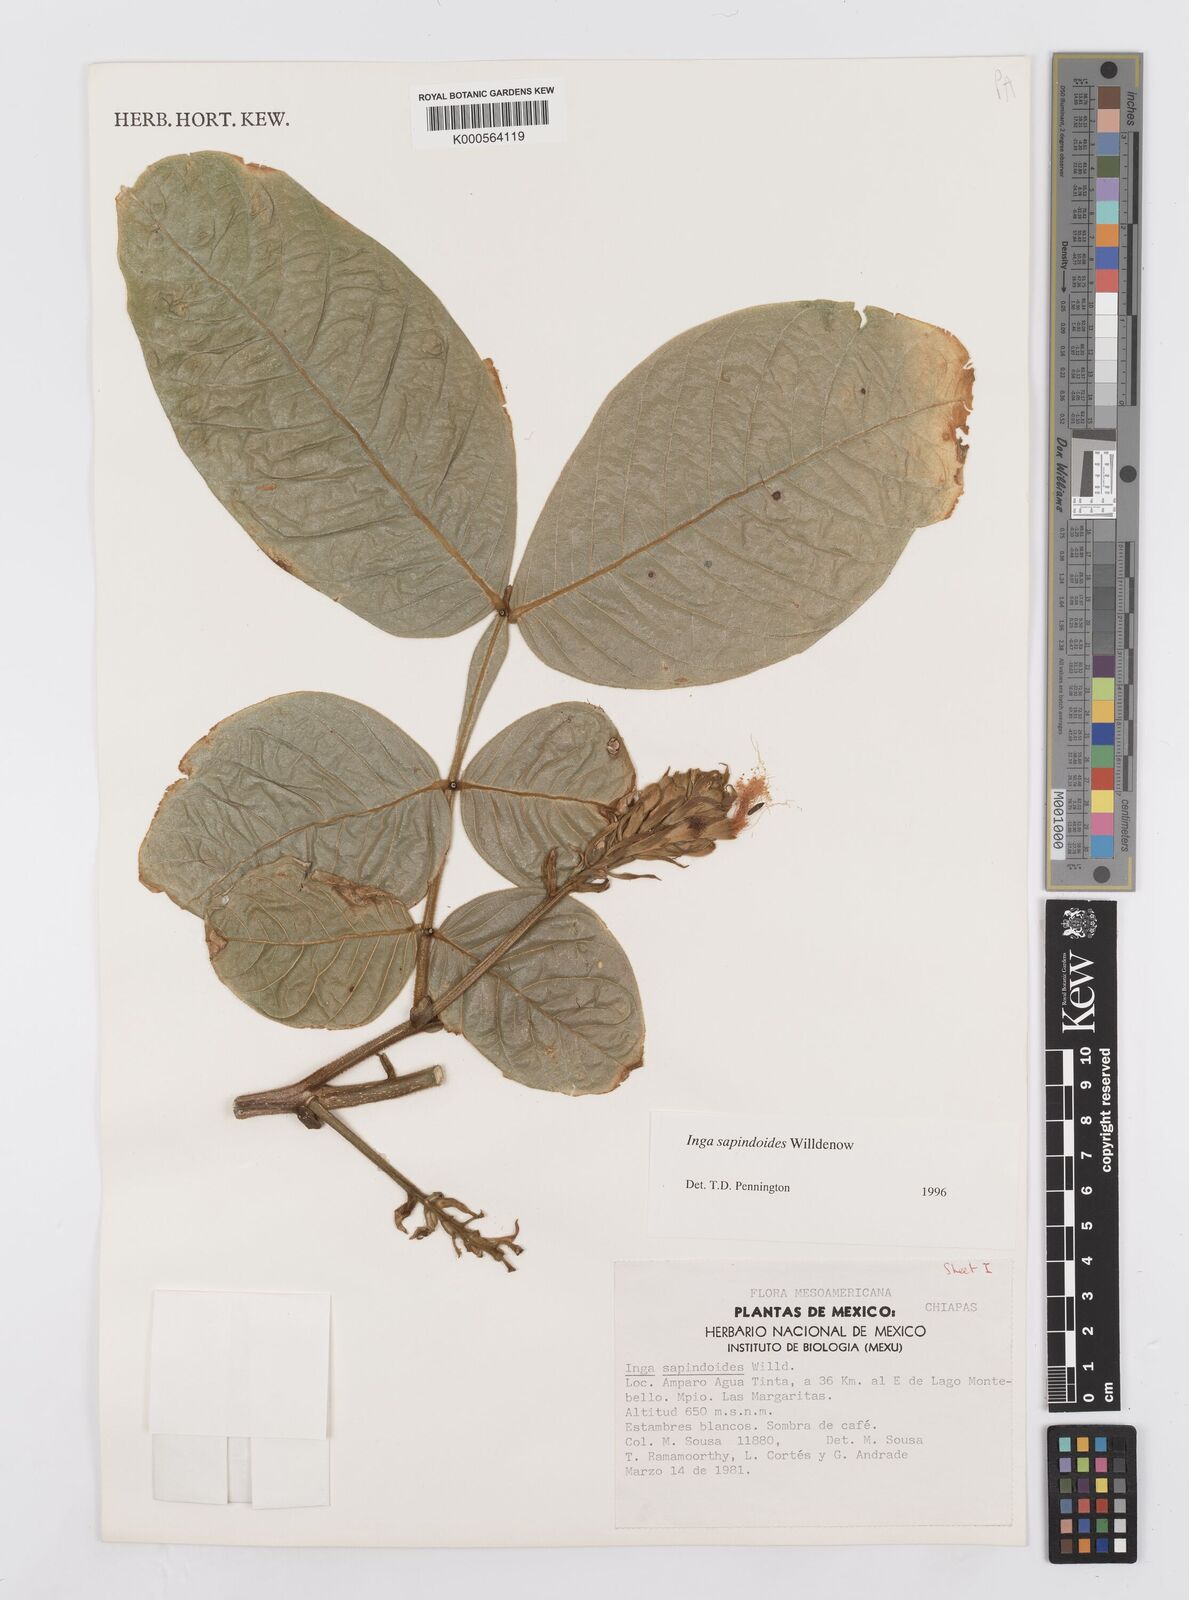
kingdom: Plantae
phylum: Tracheophyta
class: Magnoliopsida
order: Fabales
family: Fabaceae
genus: Inga
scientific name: Inga sapindoides
